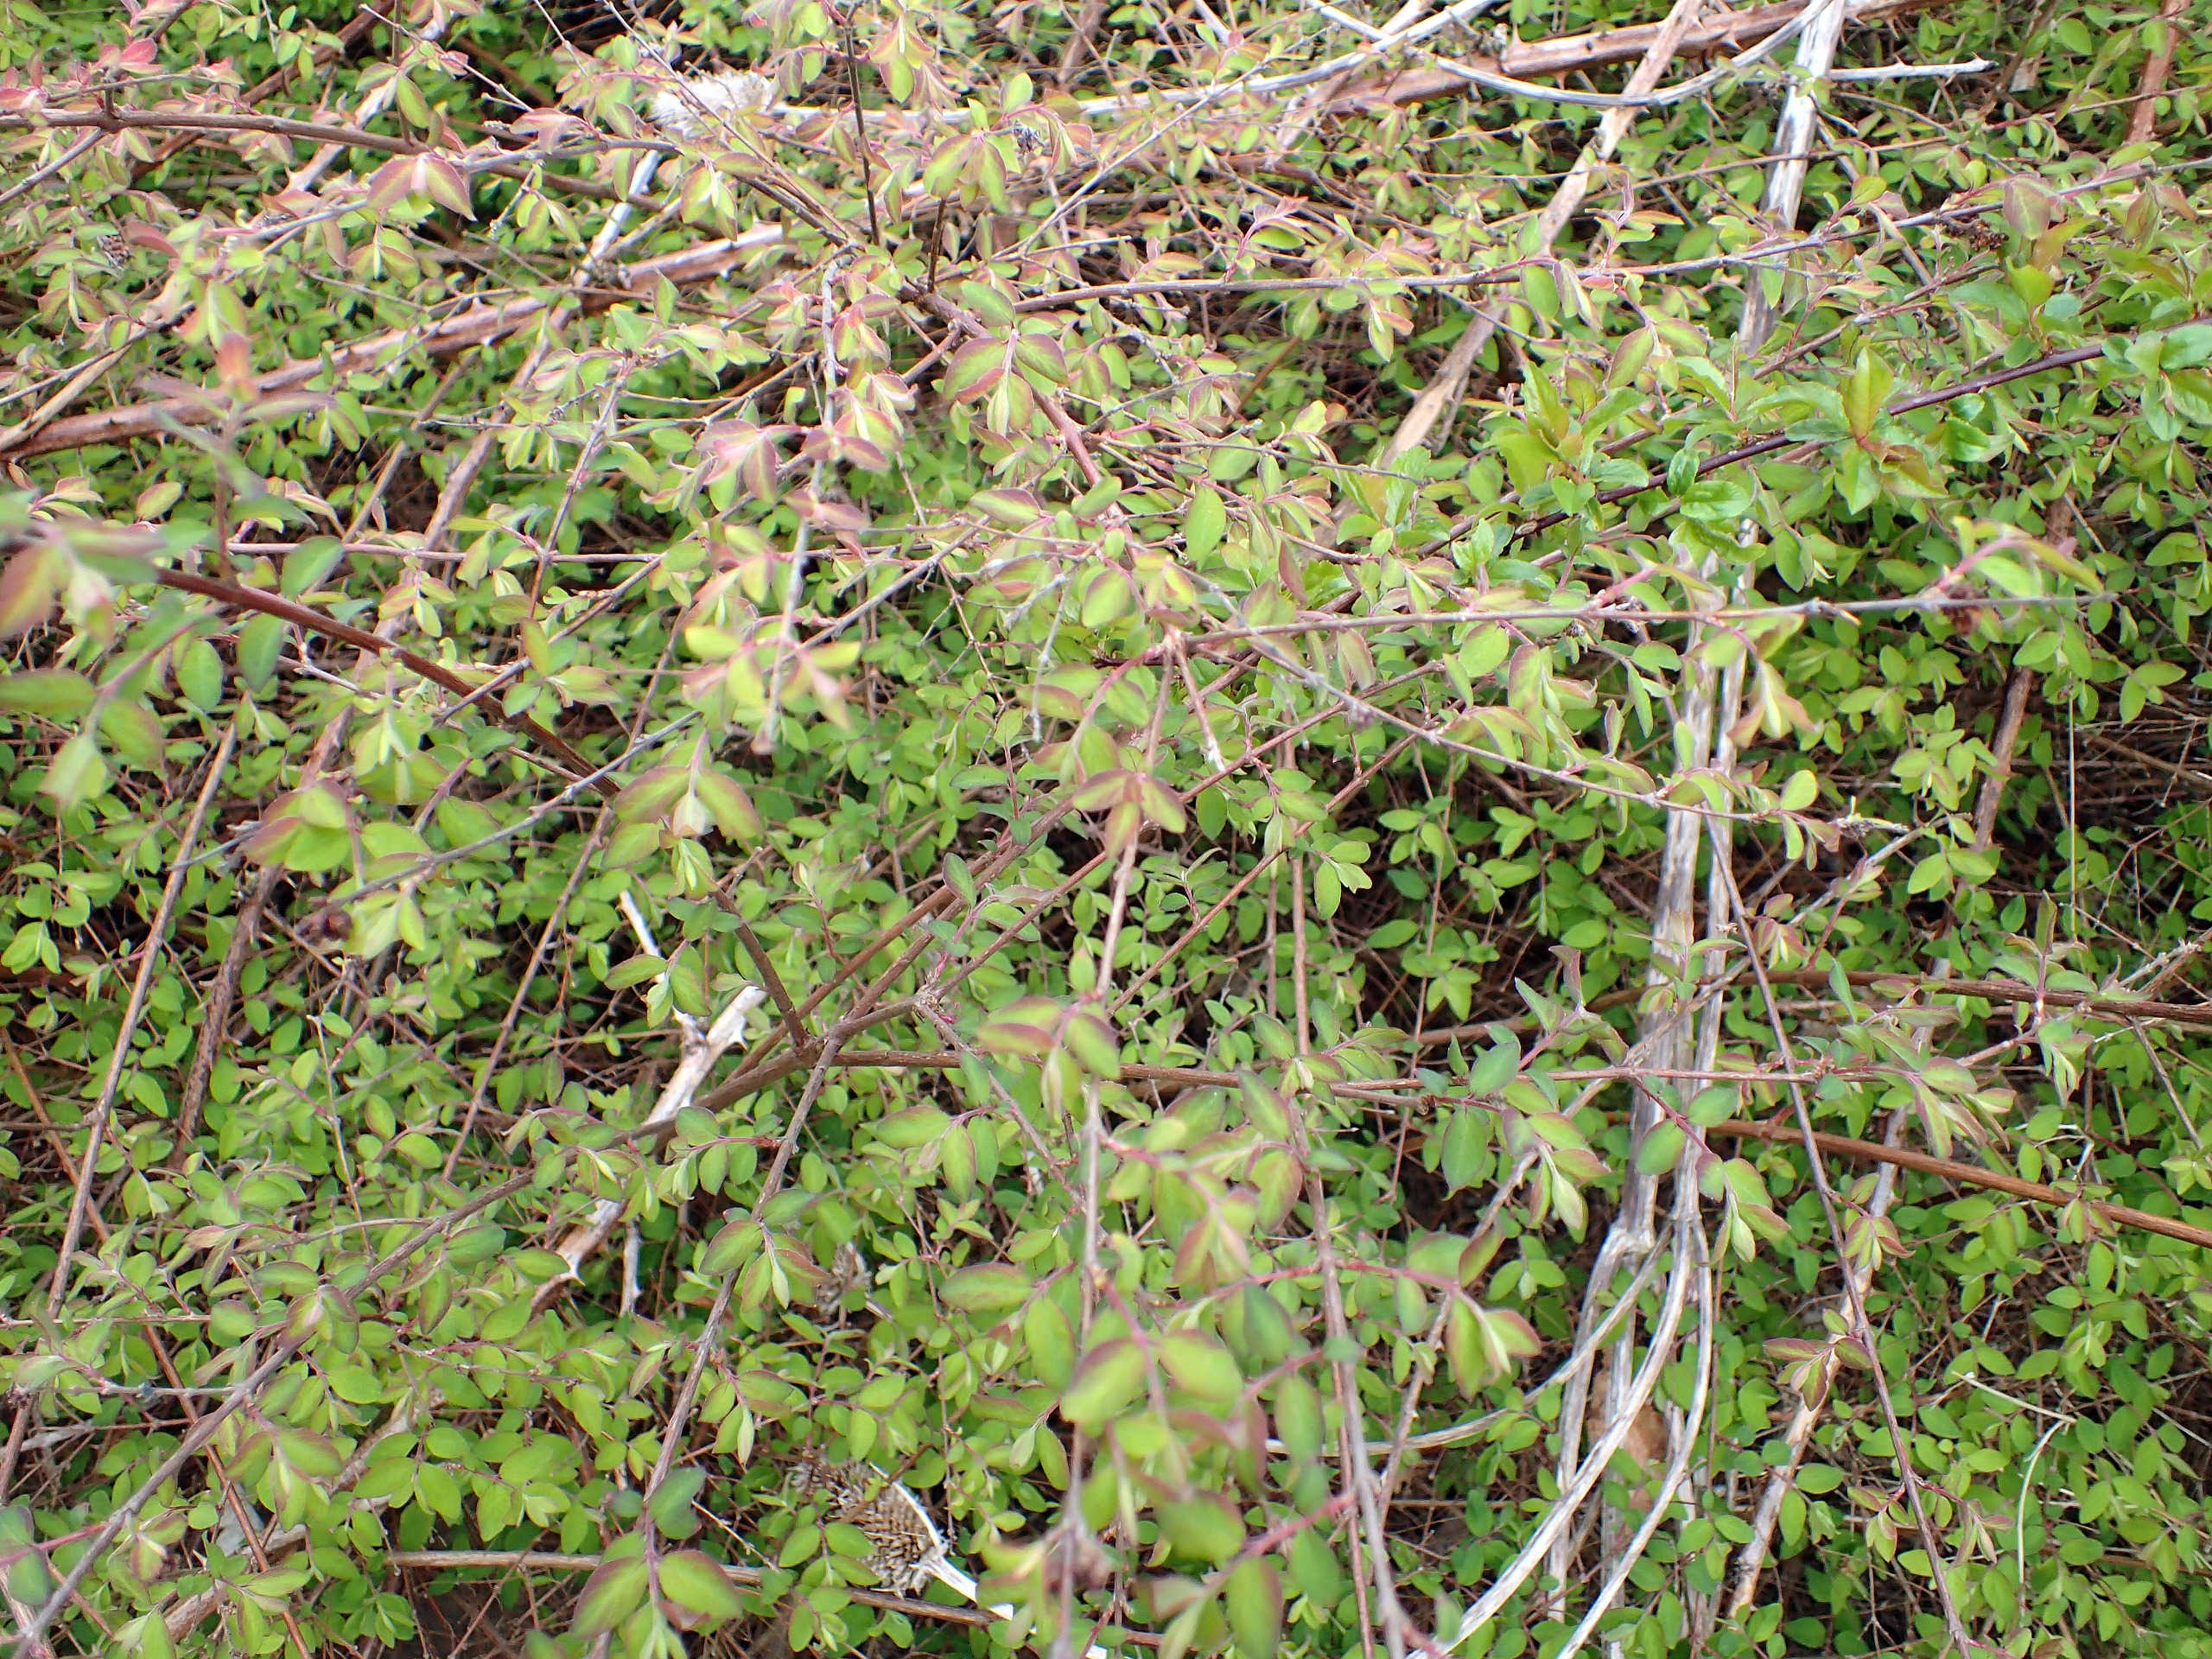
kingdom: Plantae
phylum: Tracheophyta
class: Magnoliopsida
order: Dipsacales
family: Caprifoliaceae
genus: Symphoricarpos
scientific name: Symphoricarpos chenaultii
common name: Rød snebær
